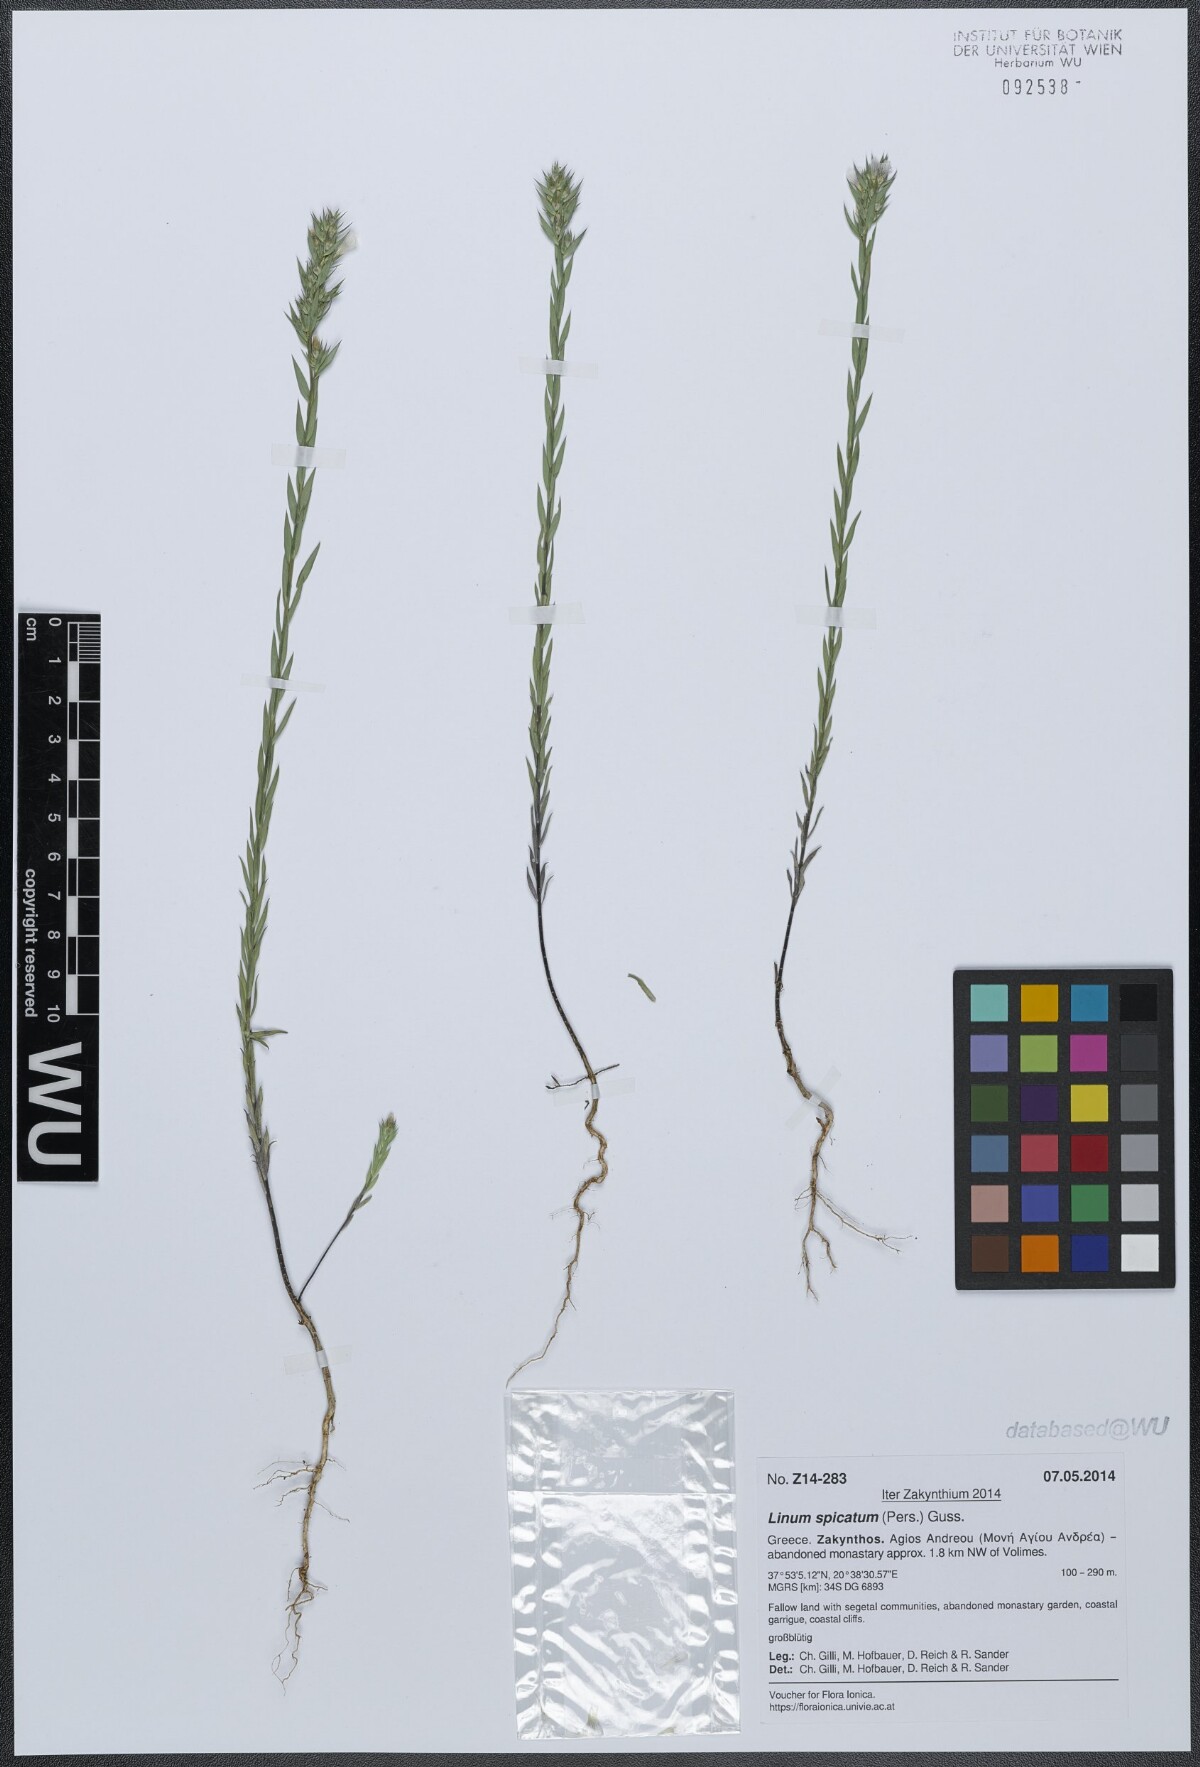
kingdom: Plantae
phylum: Tracheophyta
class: Magnoliopsida
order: Malpighiales
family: Linaceae
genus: Linum
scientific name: Linum strictum
